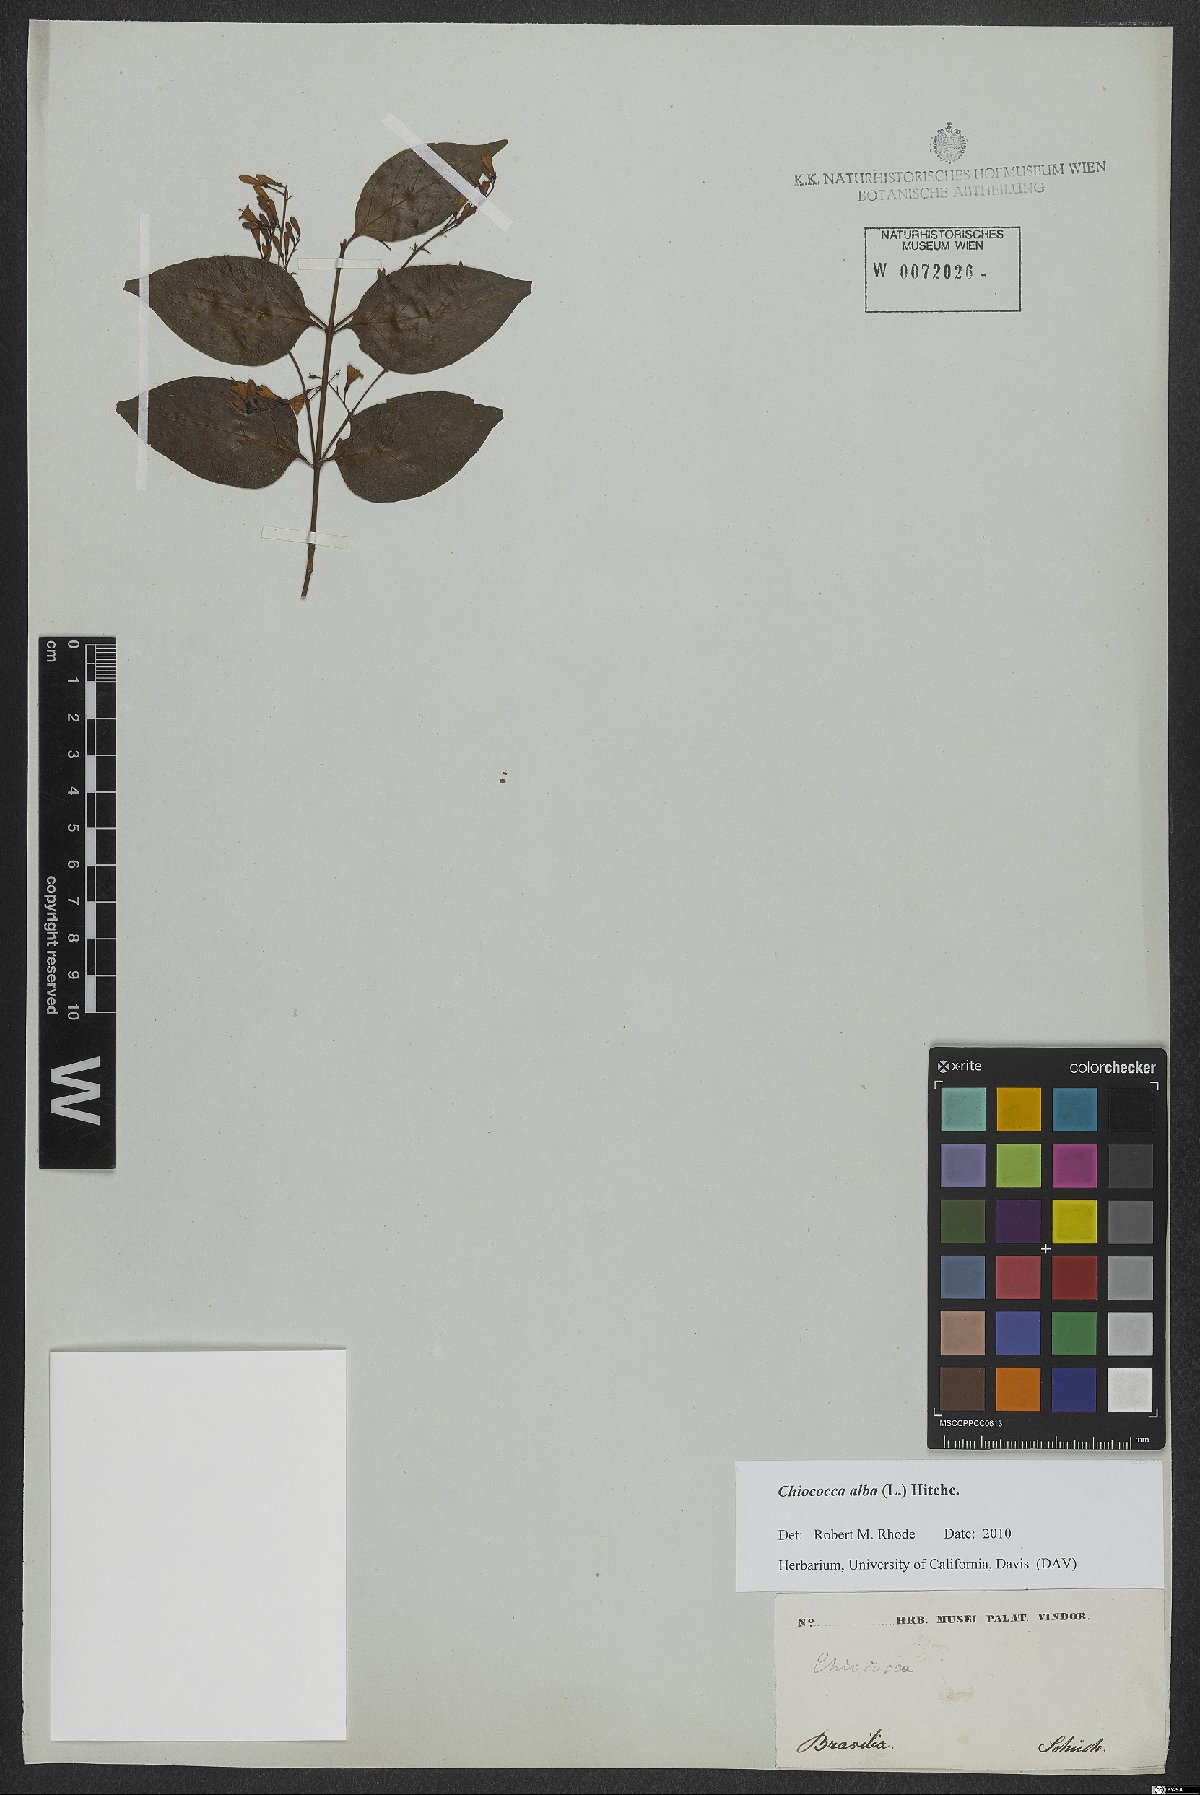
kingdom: Plantae
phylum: Tracheophyta
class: Magnoliopsida
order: Gentianales
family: Rubiaceae
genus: Chiococca
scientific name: Chiococca alba
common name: Snowberry
